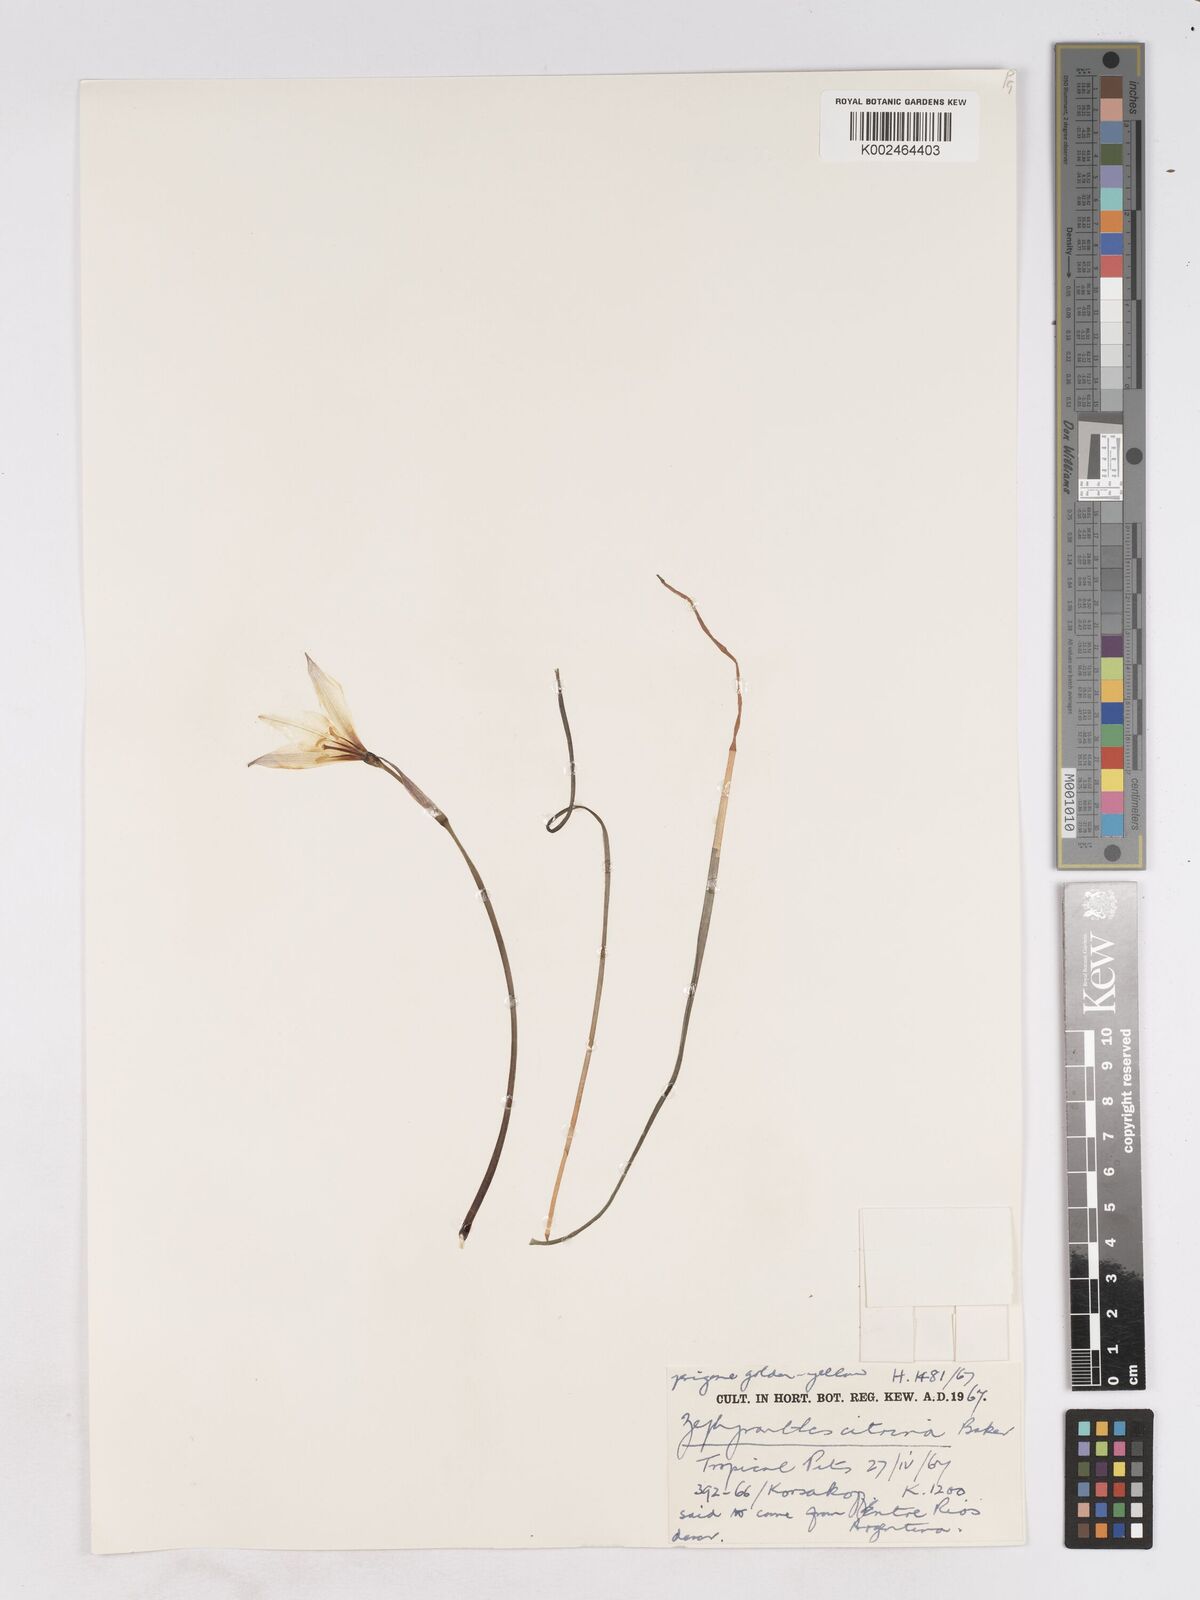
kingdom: Plantae
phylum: Tracheophyta
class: Liliopsida
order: Asparagales
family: Amaryllidaceae
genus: Zephyranthes
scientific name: Zephyranthes citrina
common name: Citron zephyrlily
